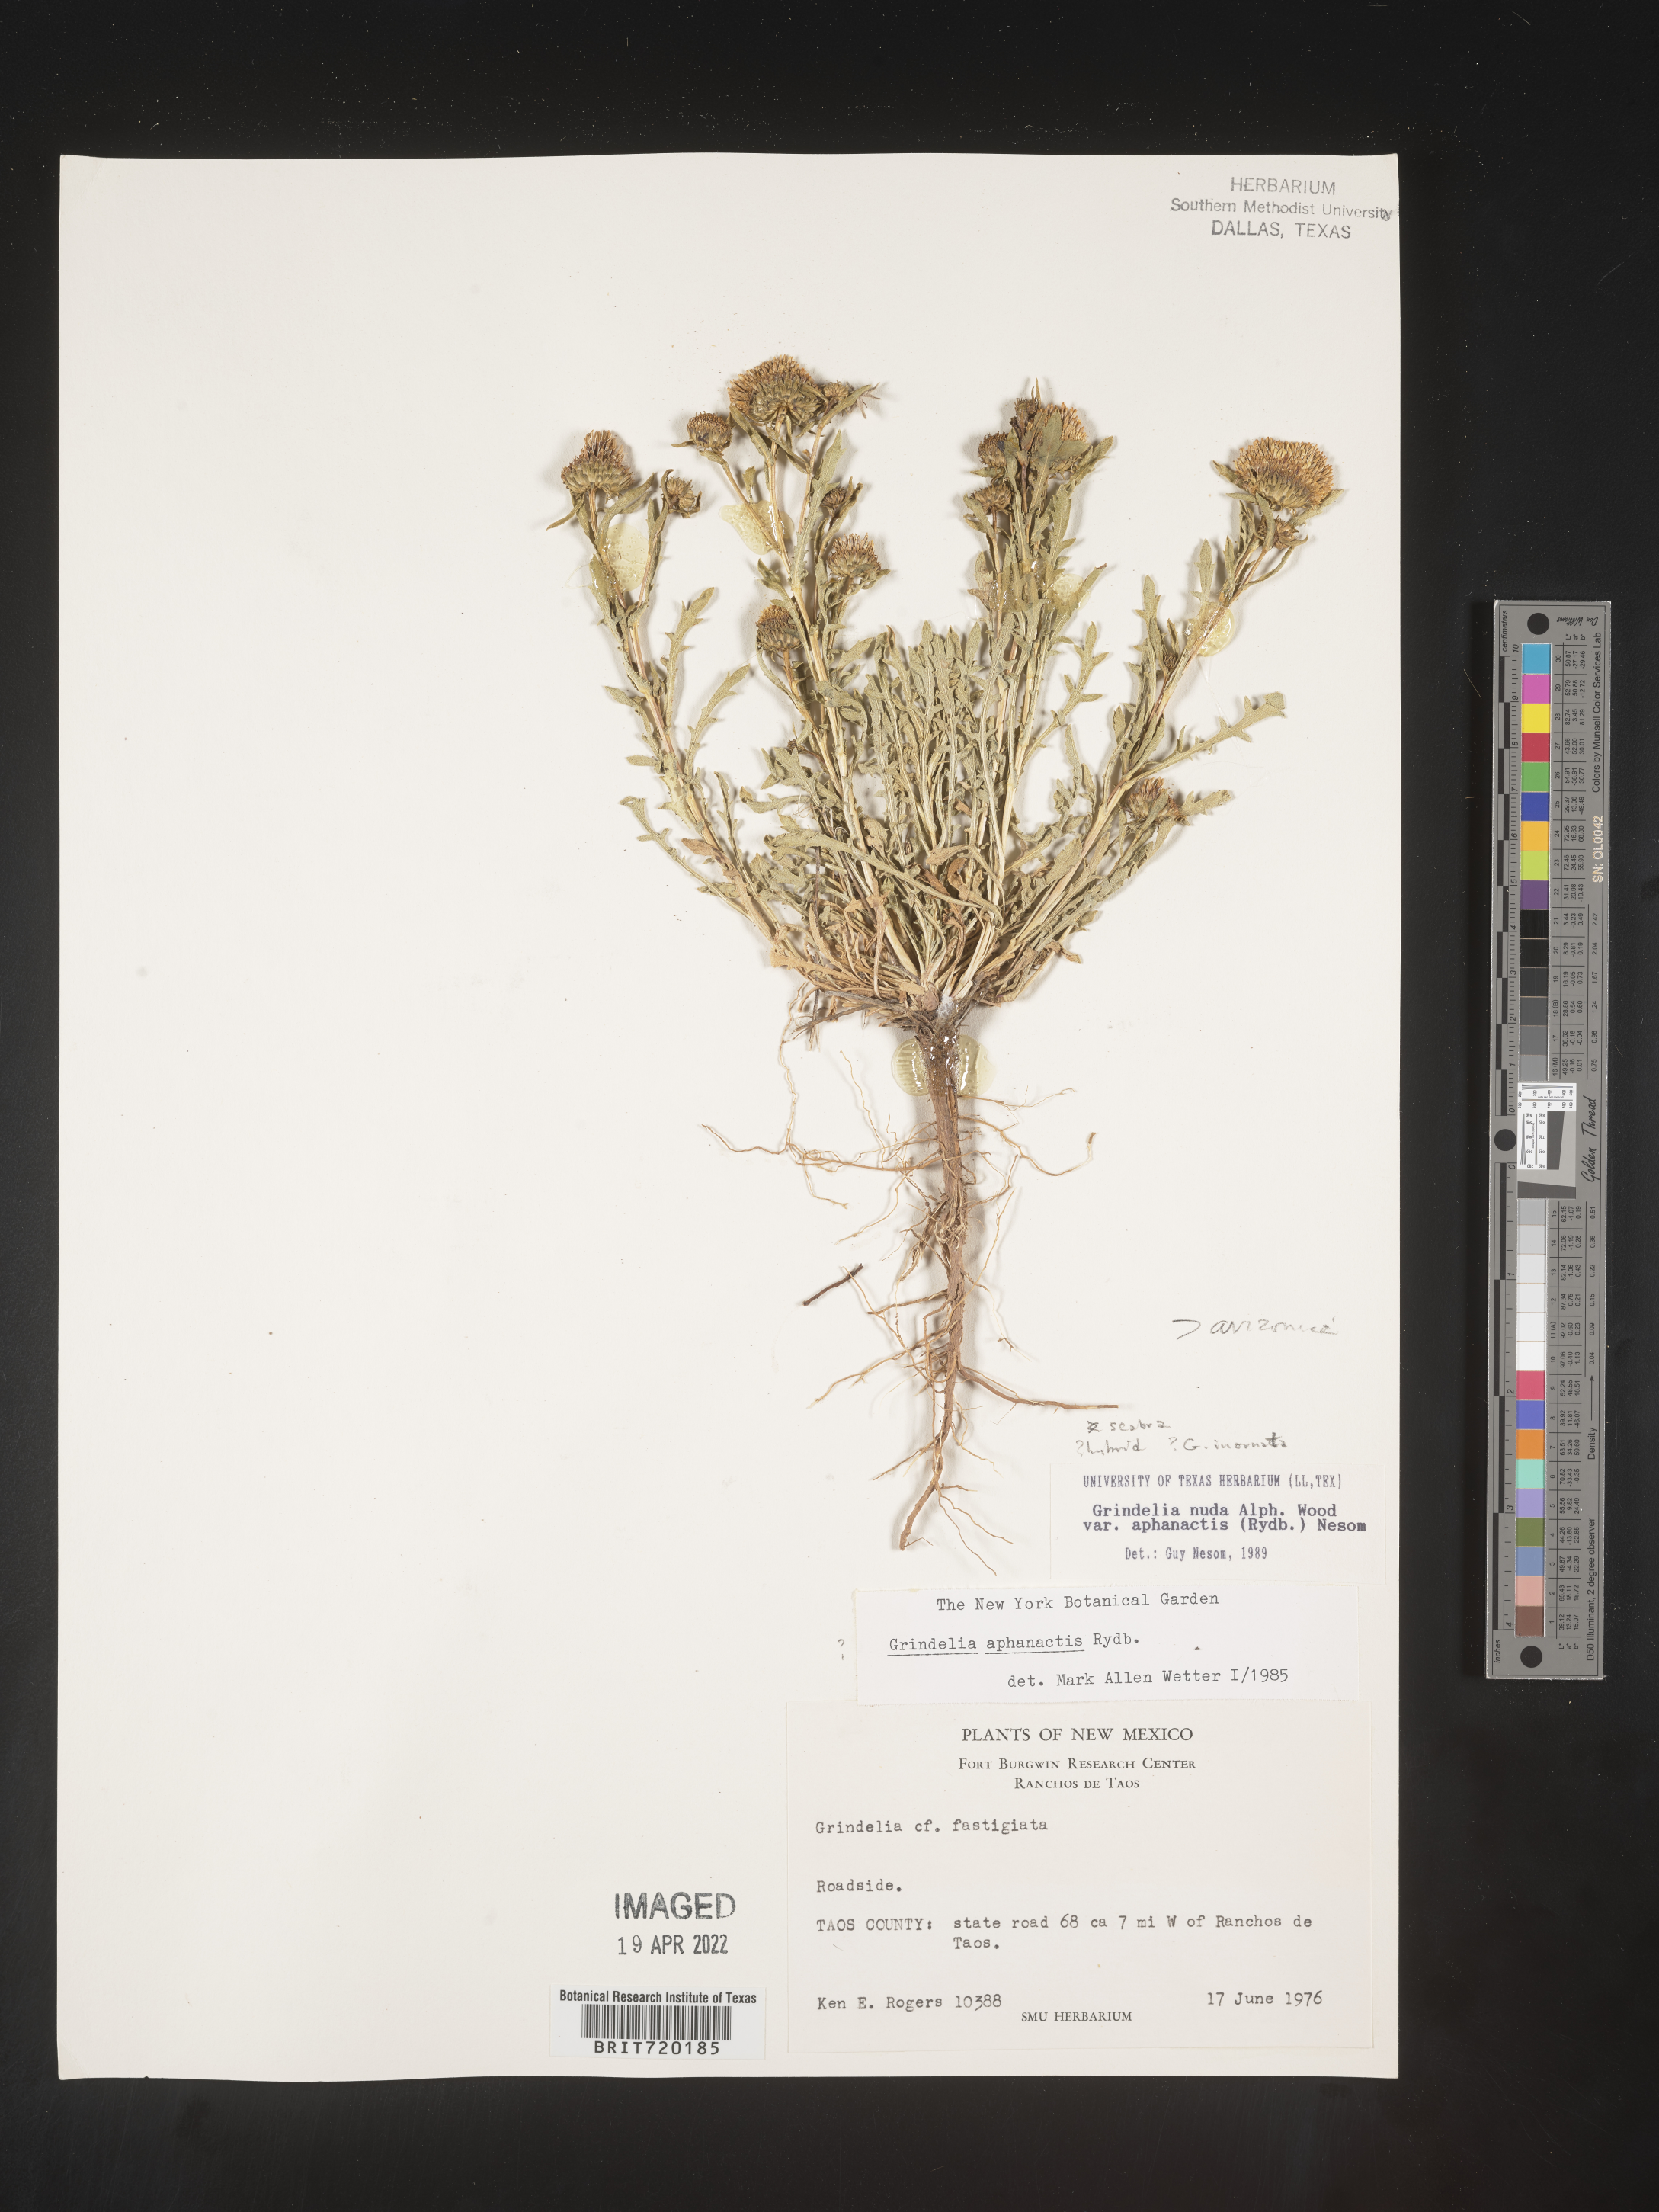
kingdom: Plantae
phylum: Tracheophyta
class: Magnoliopsida
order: Asterales
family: Asteraceae
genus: Grindelia
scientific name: Grindelia arizonica
